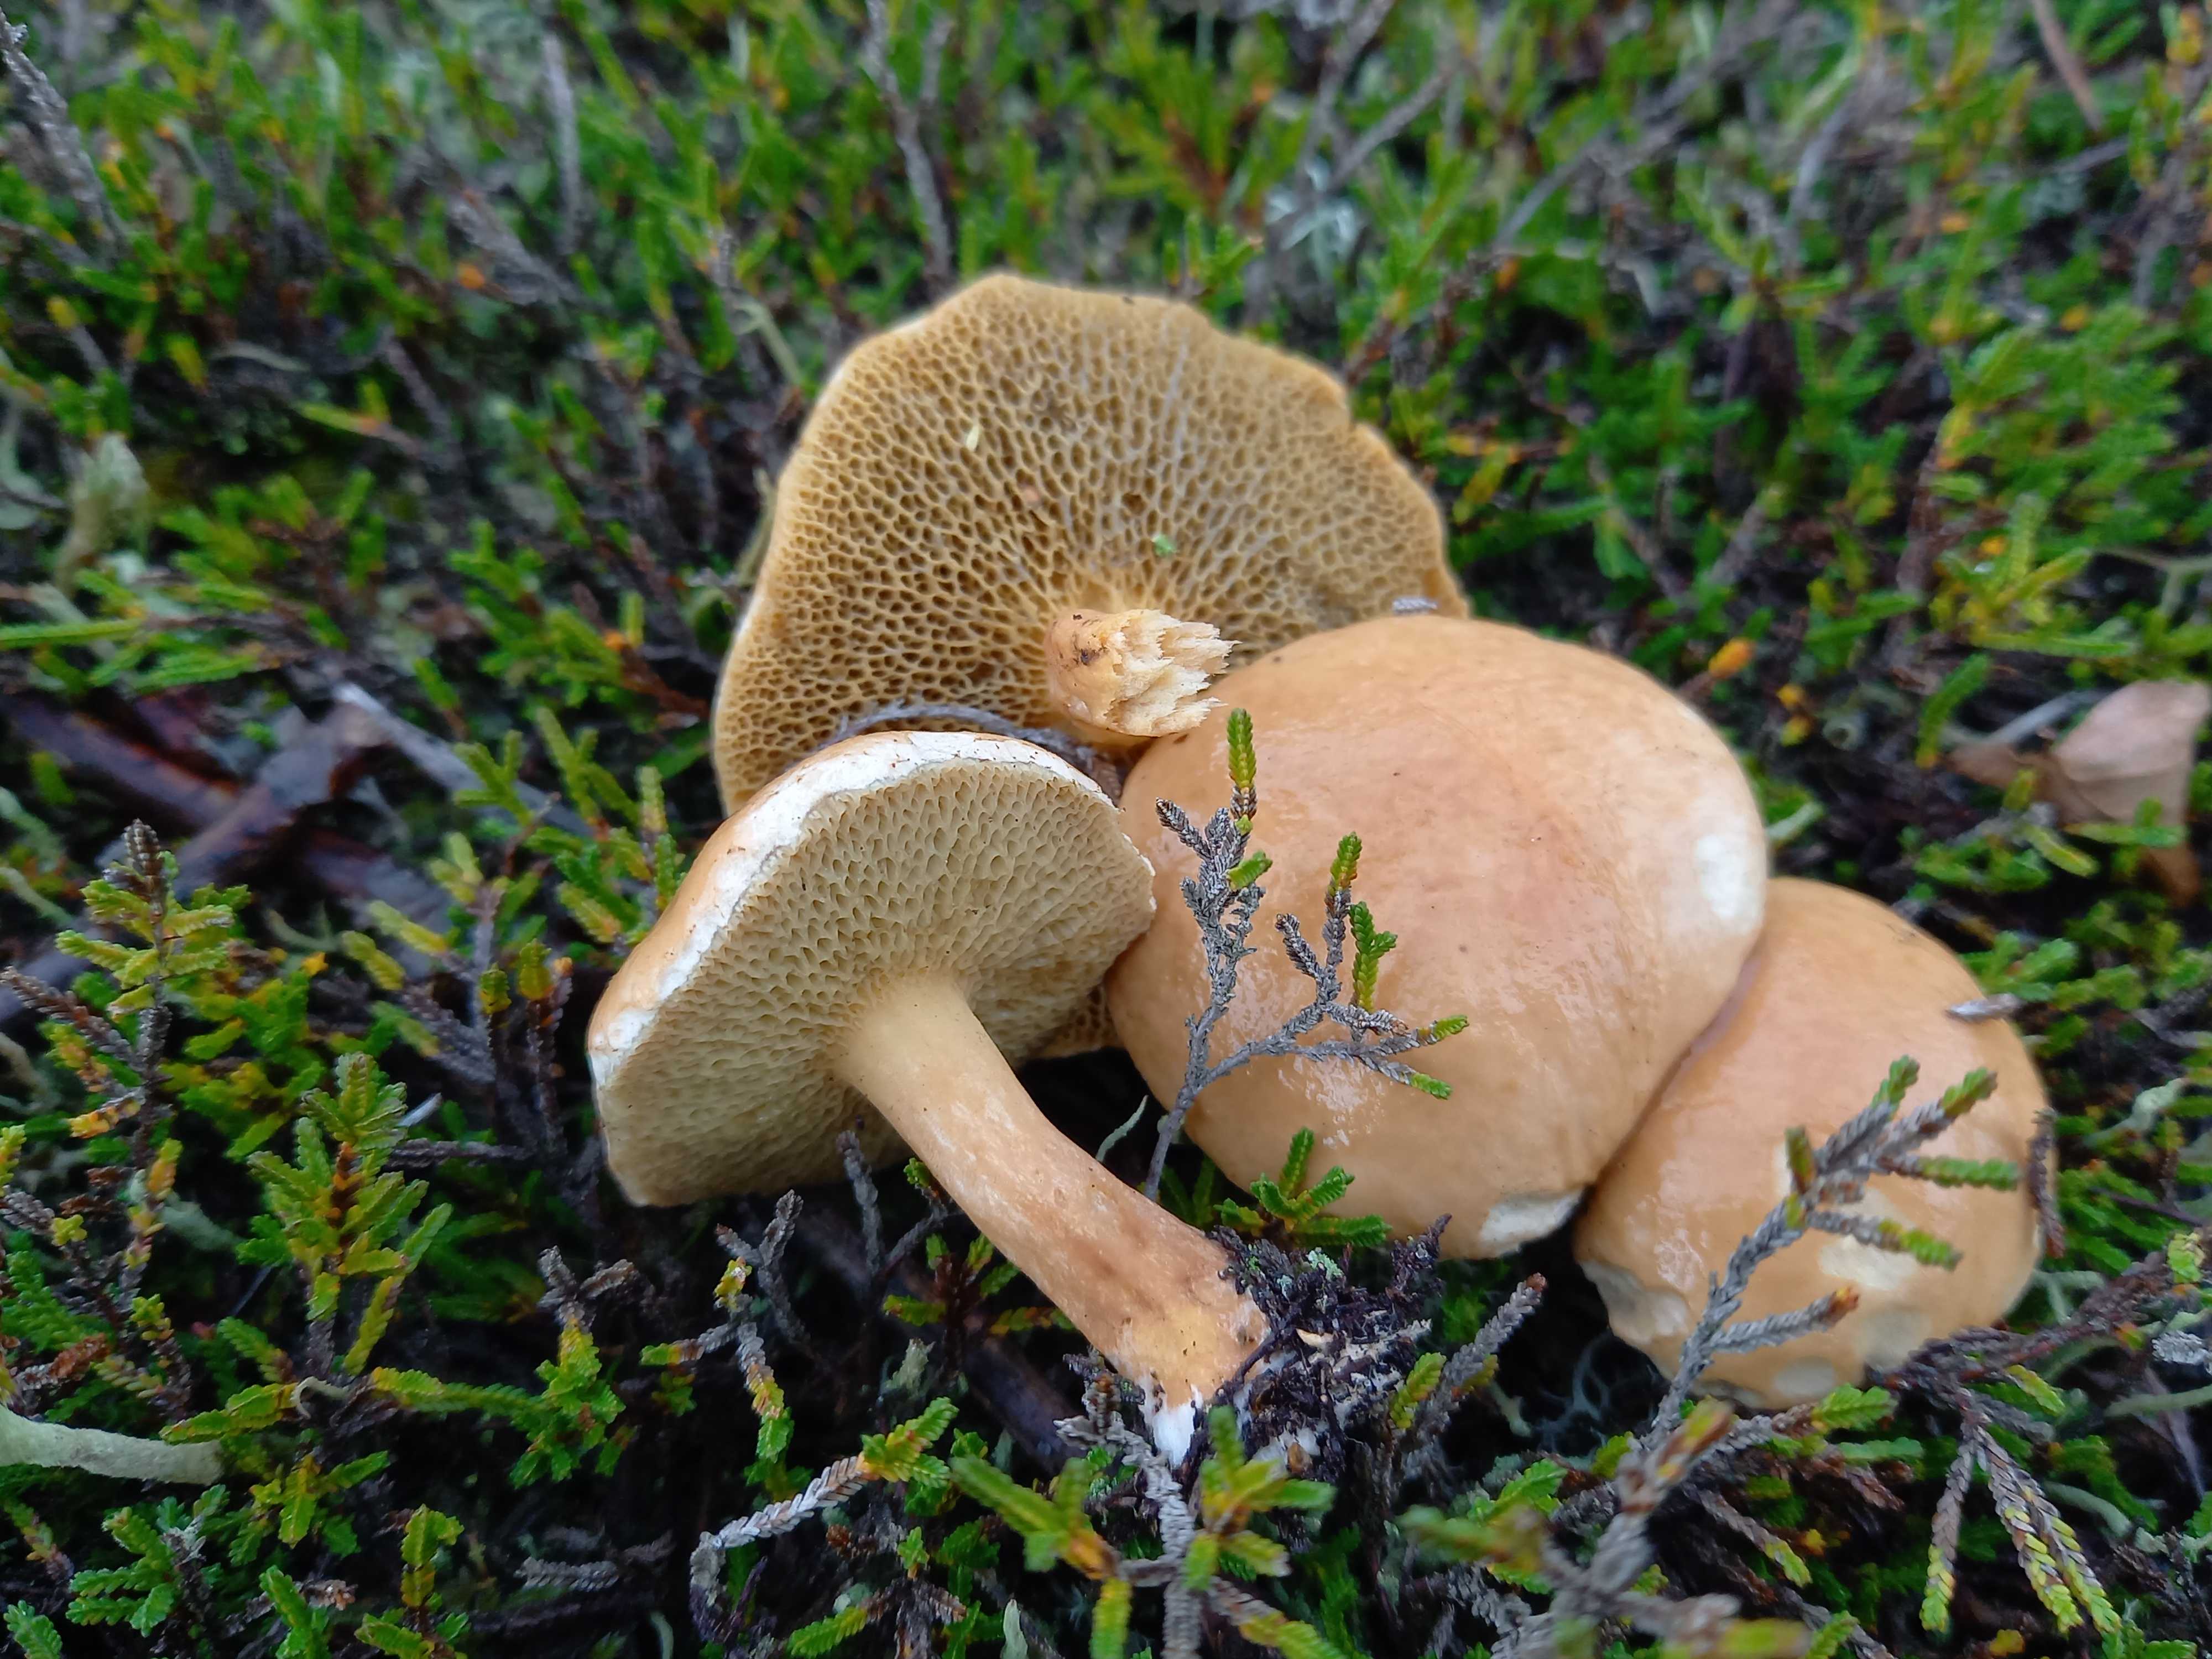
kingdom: Fungi
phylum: Basidiomycota
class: Agaricomycetes
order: Boletales
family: Suillaceae
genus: Suillus
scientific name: Suillus bovinus
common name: grovporet slimrørhat
